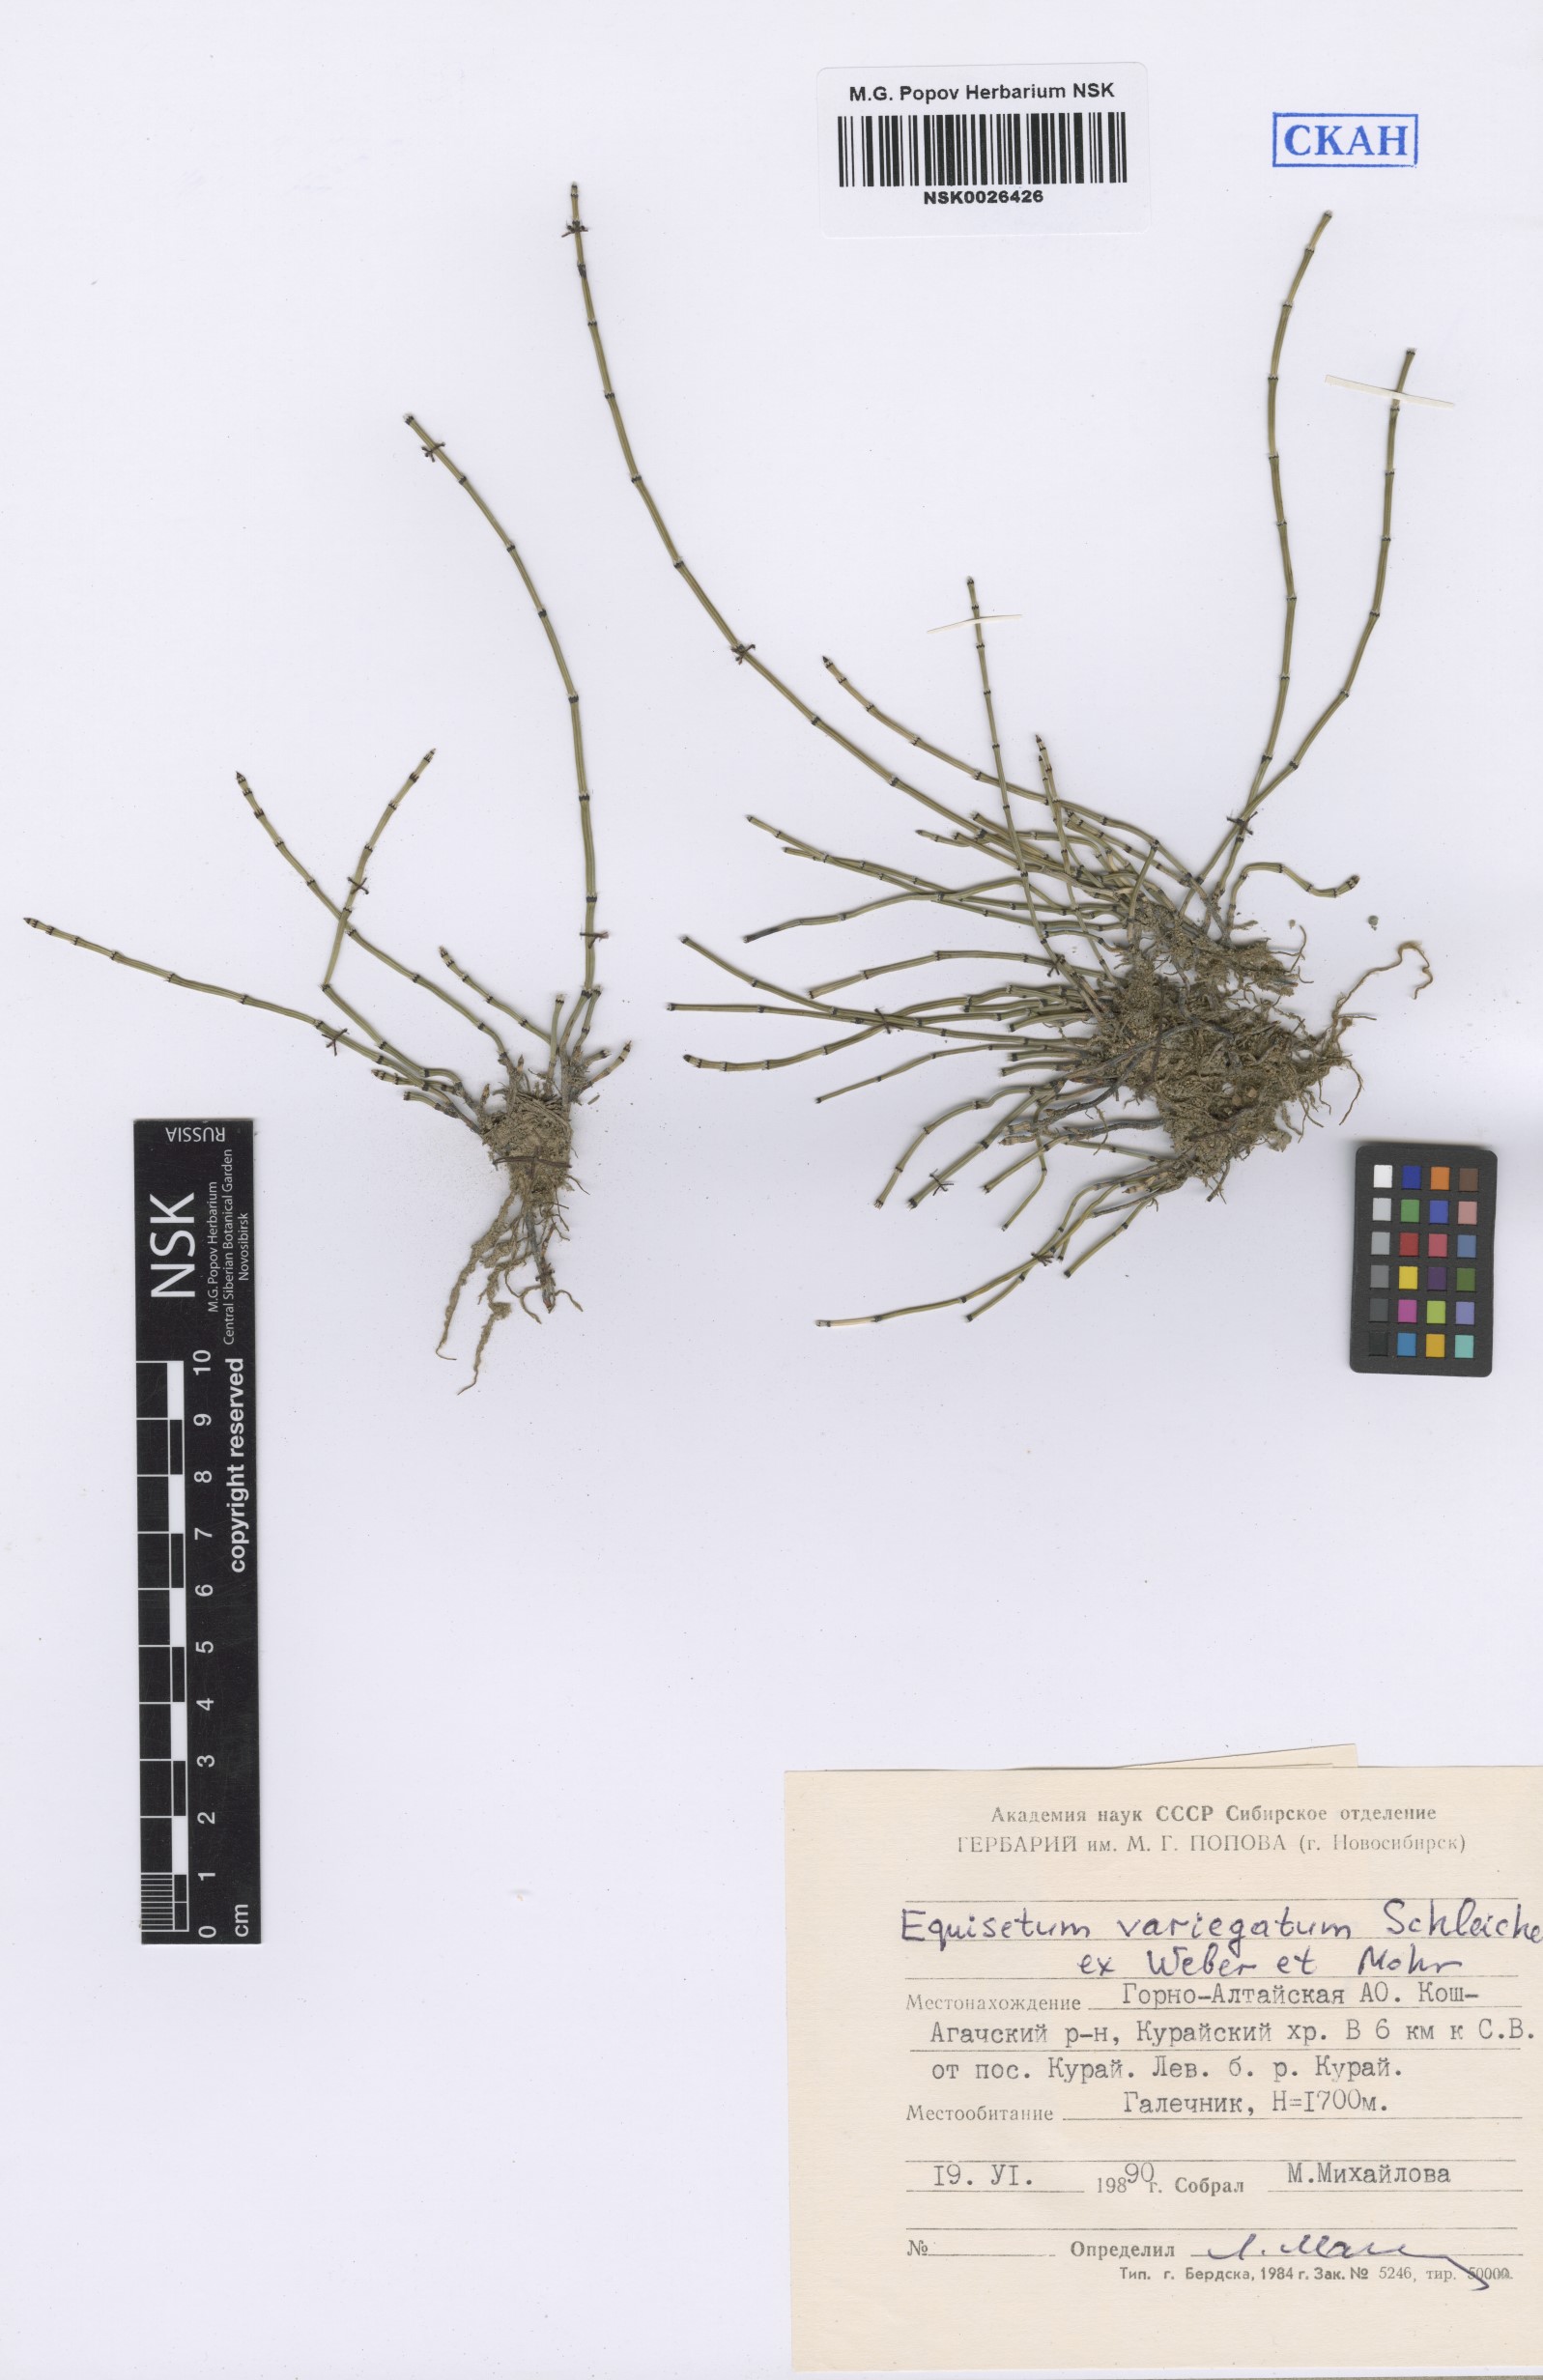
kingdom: Plantae
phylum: Tracheophyta
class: Polypodiopsida
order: Equisetales
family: Equisetaceae
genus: Equisetum
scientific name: Equisetum variegatum
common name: Variegated horsetail
